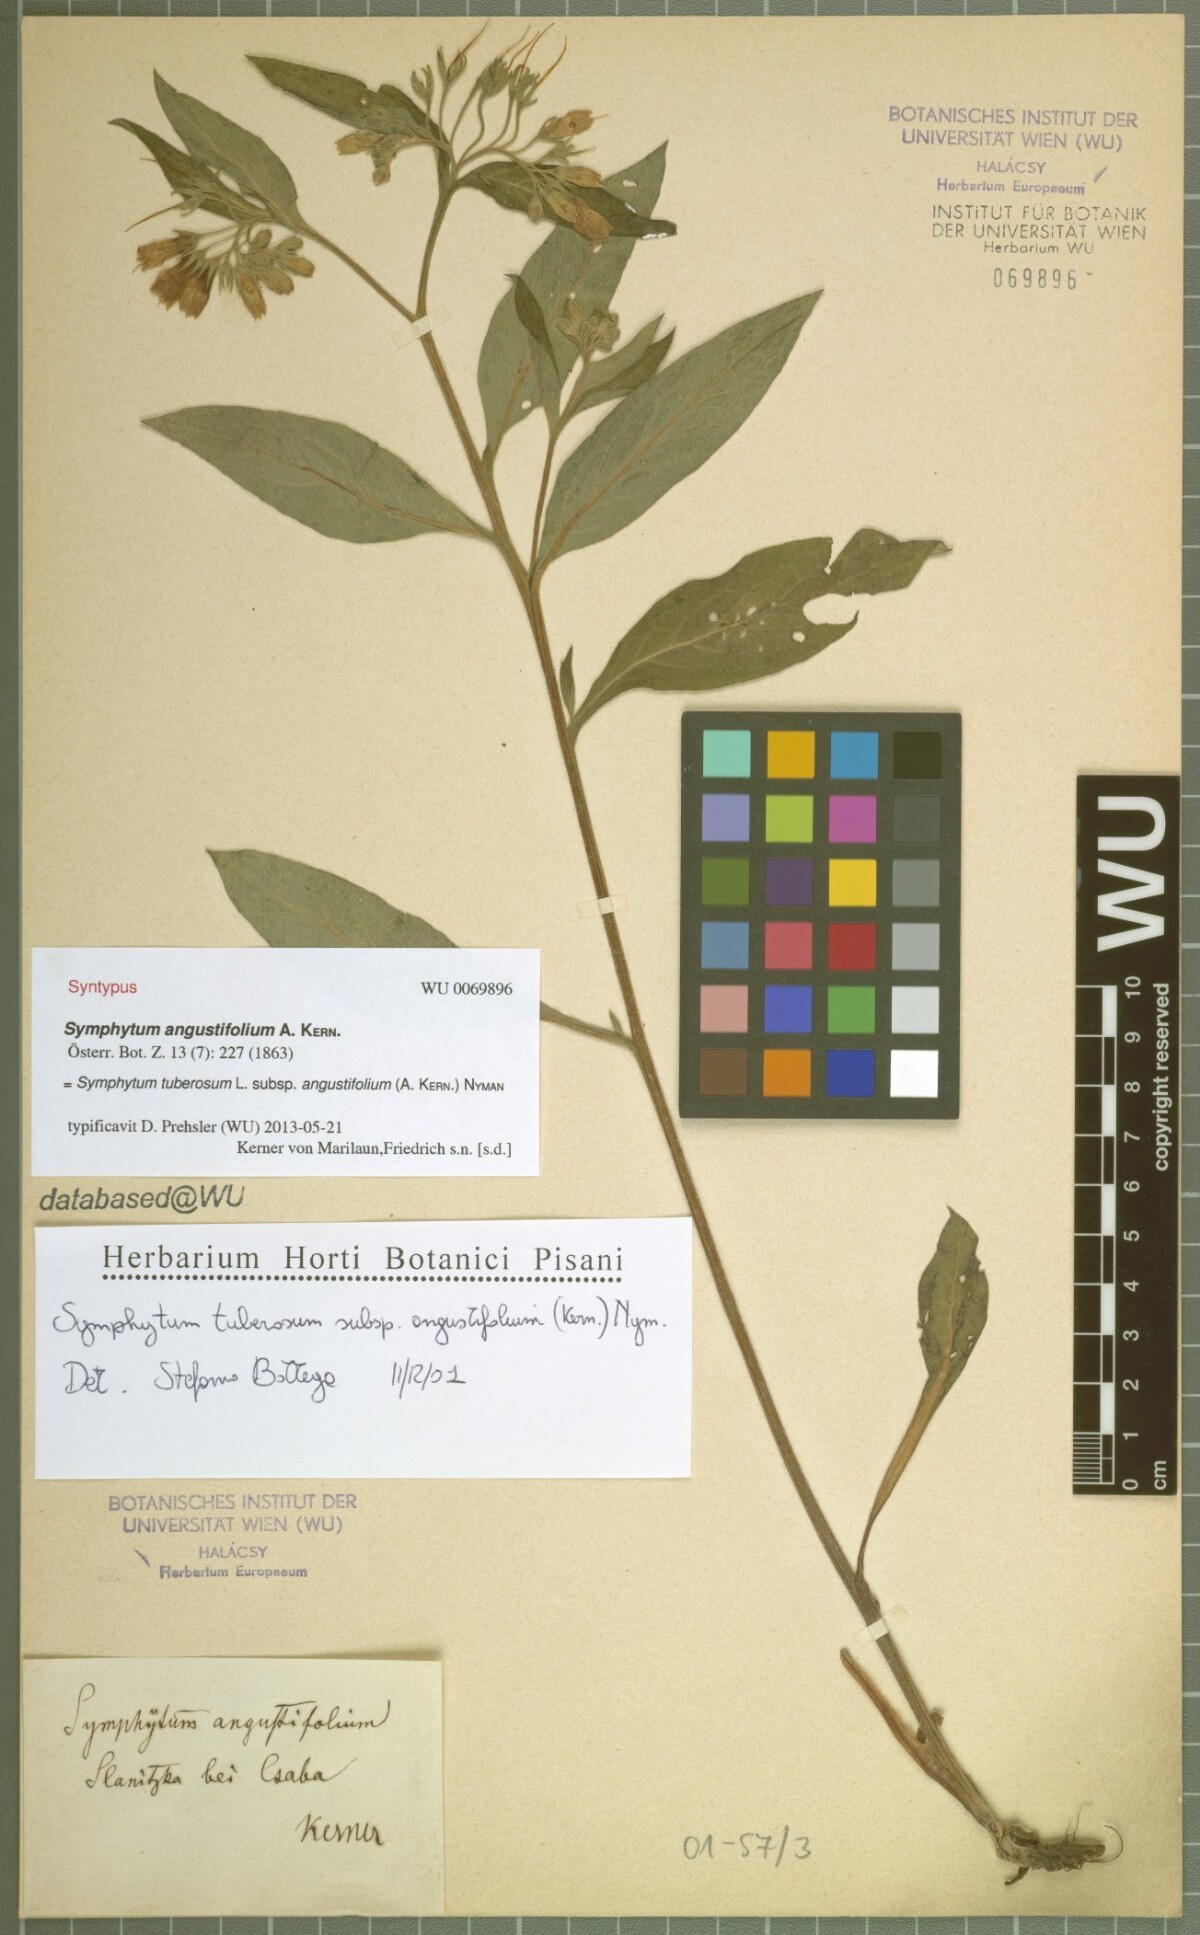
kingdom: Plantae
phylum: Tracheophyta
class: Magnoliopsida
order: Boraginales
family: Boraginaceae
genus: Symphytum
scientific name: Symphytum tuberosum
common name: Tuberous comfrey
